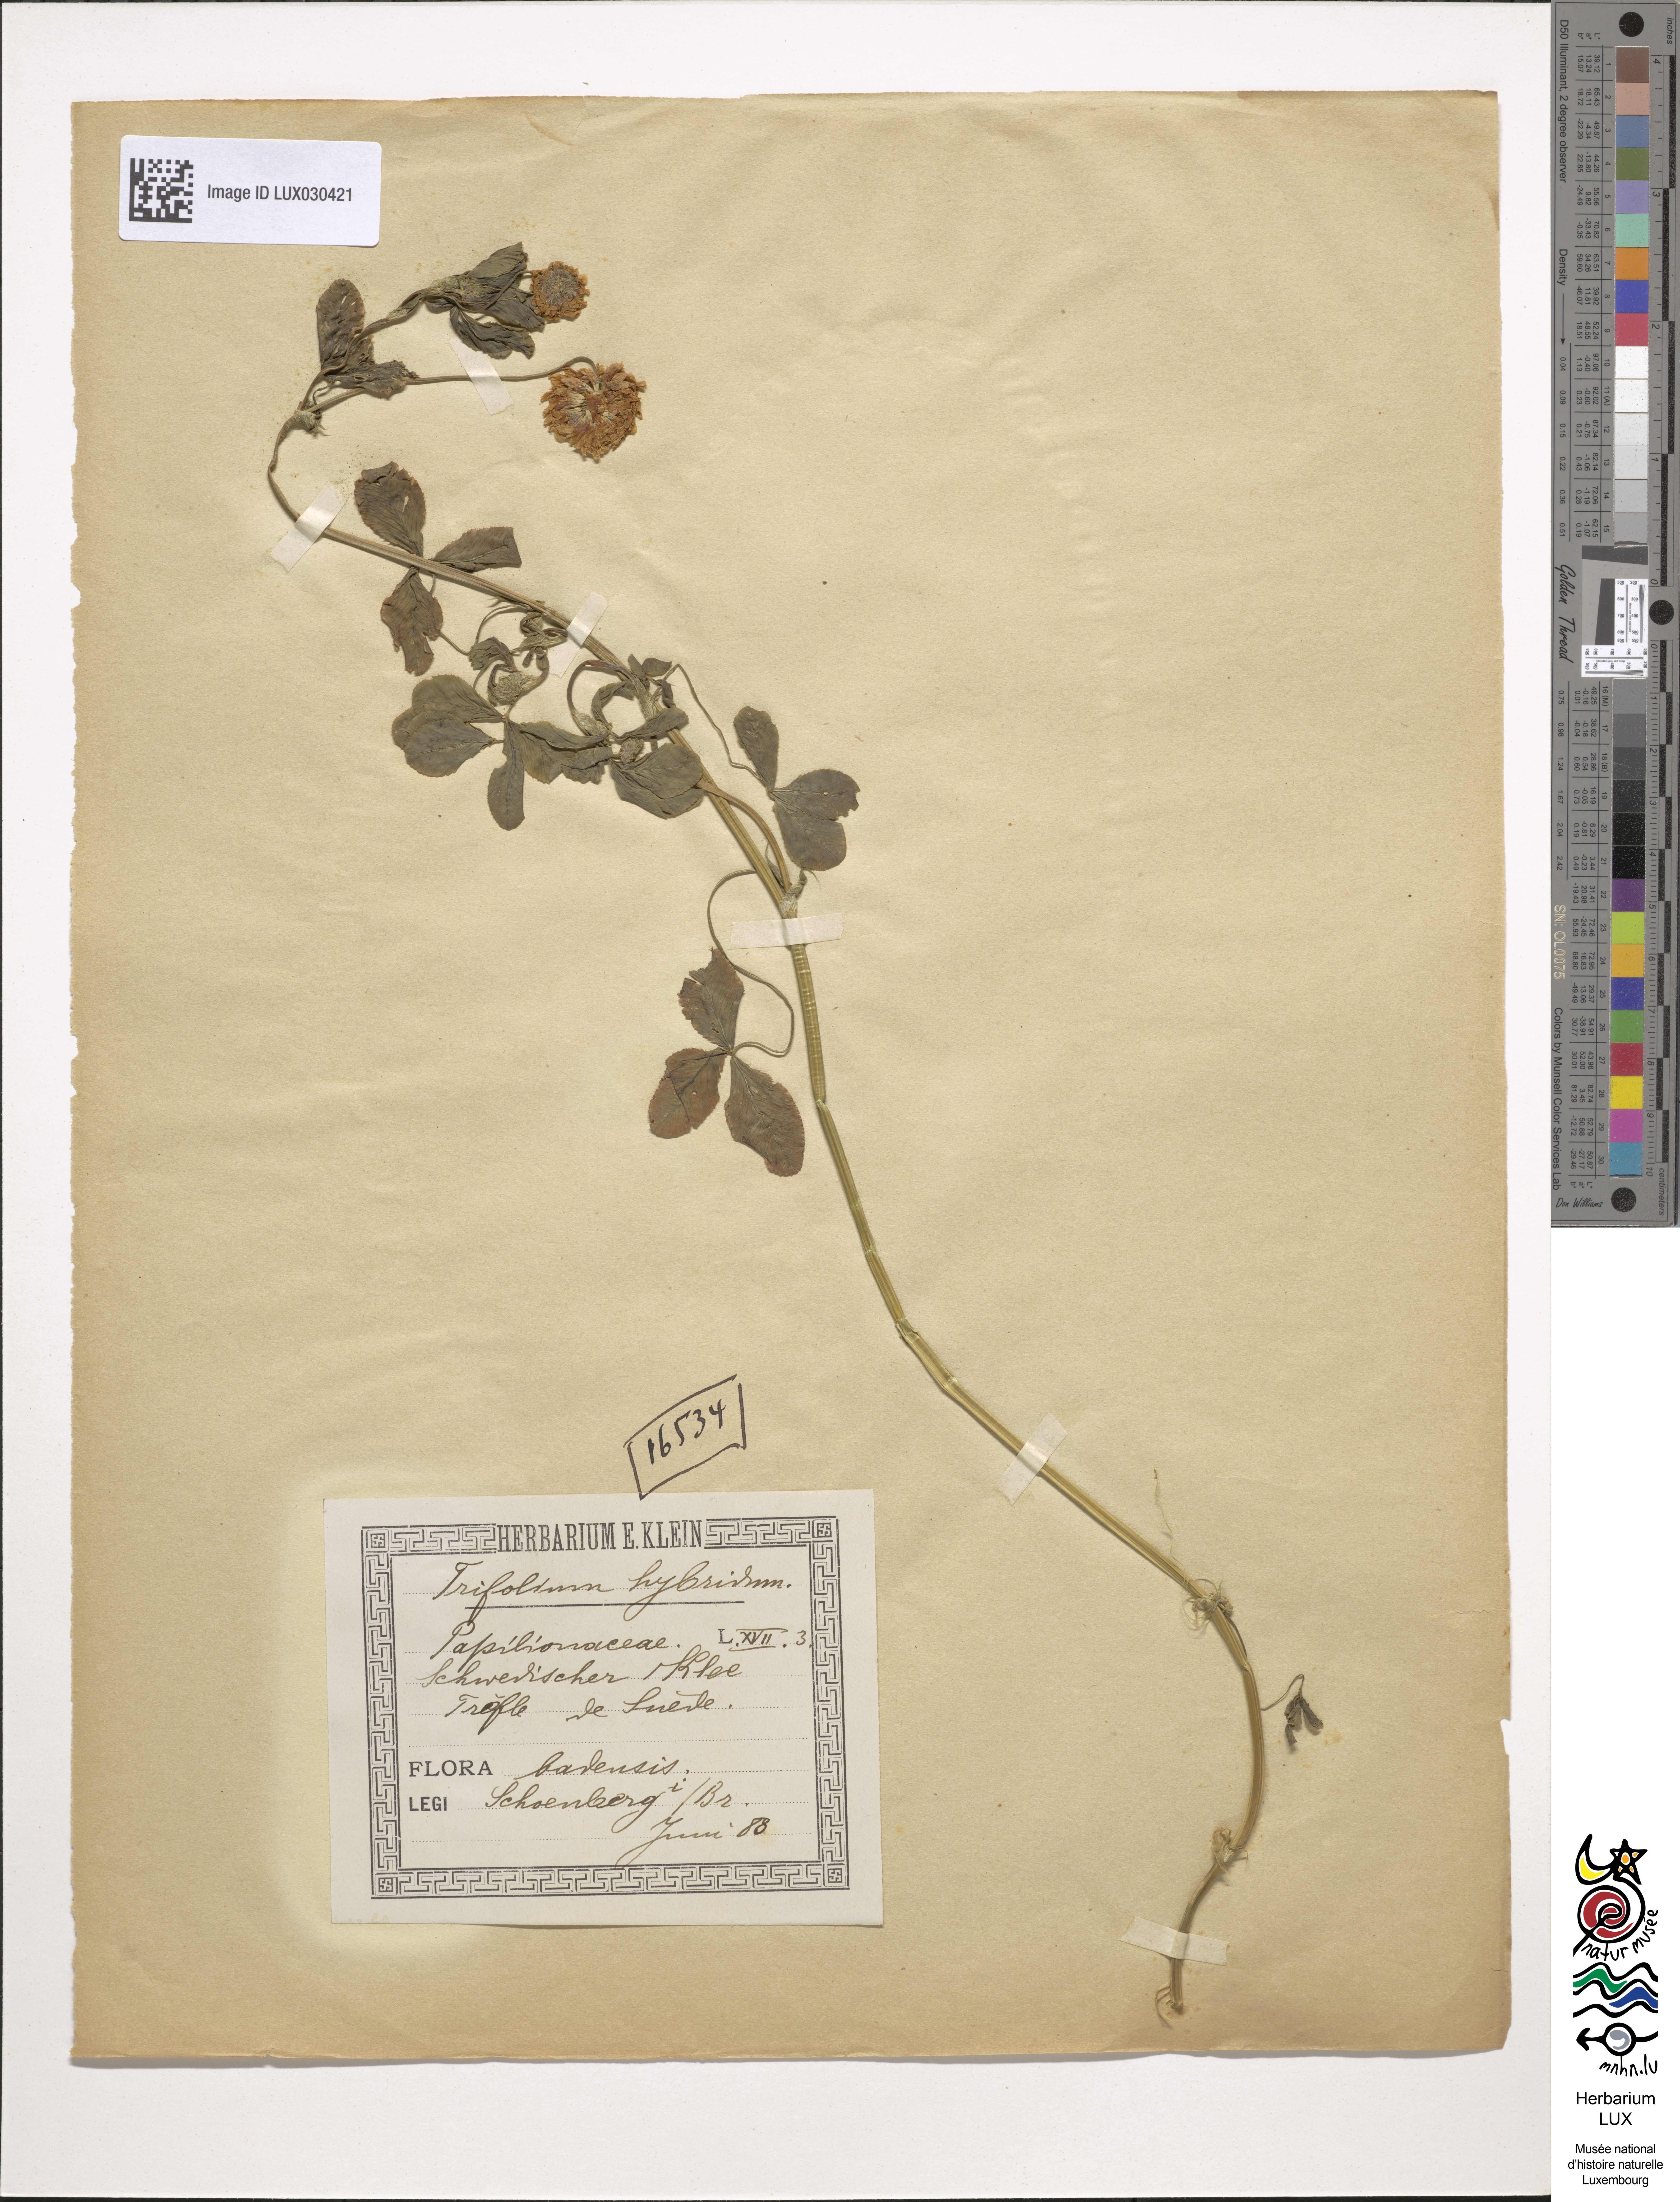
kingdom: Plantae
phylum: Tracheophyta
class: Magnoliopsida
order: Fabales
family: Fabaceae
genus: Trifolium
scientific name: Trifolium hybridum
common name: Alsike clover
